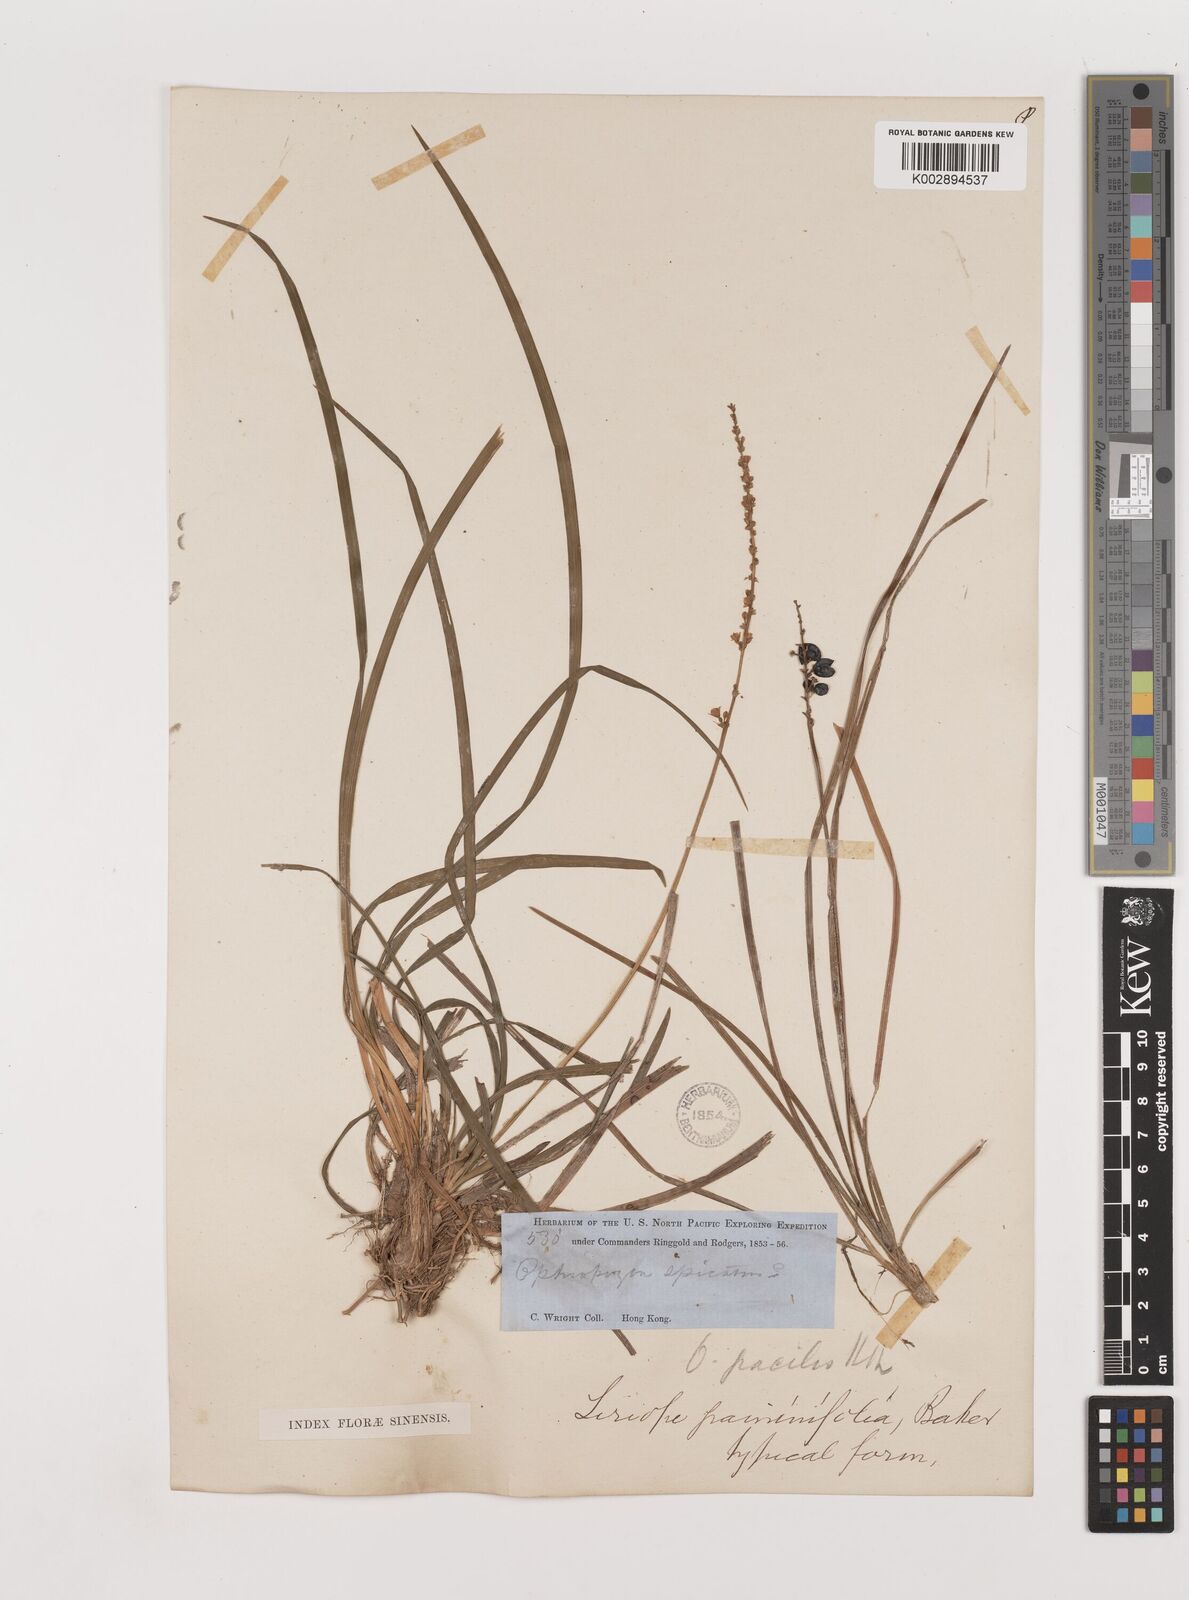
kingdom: Plantae
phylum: Tracheophyta
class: Liliopsida
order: Asparagales
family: Asparagaceae
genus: Liriope
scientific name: Liriope spicata
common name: Creeping liriope
